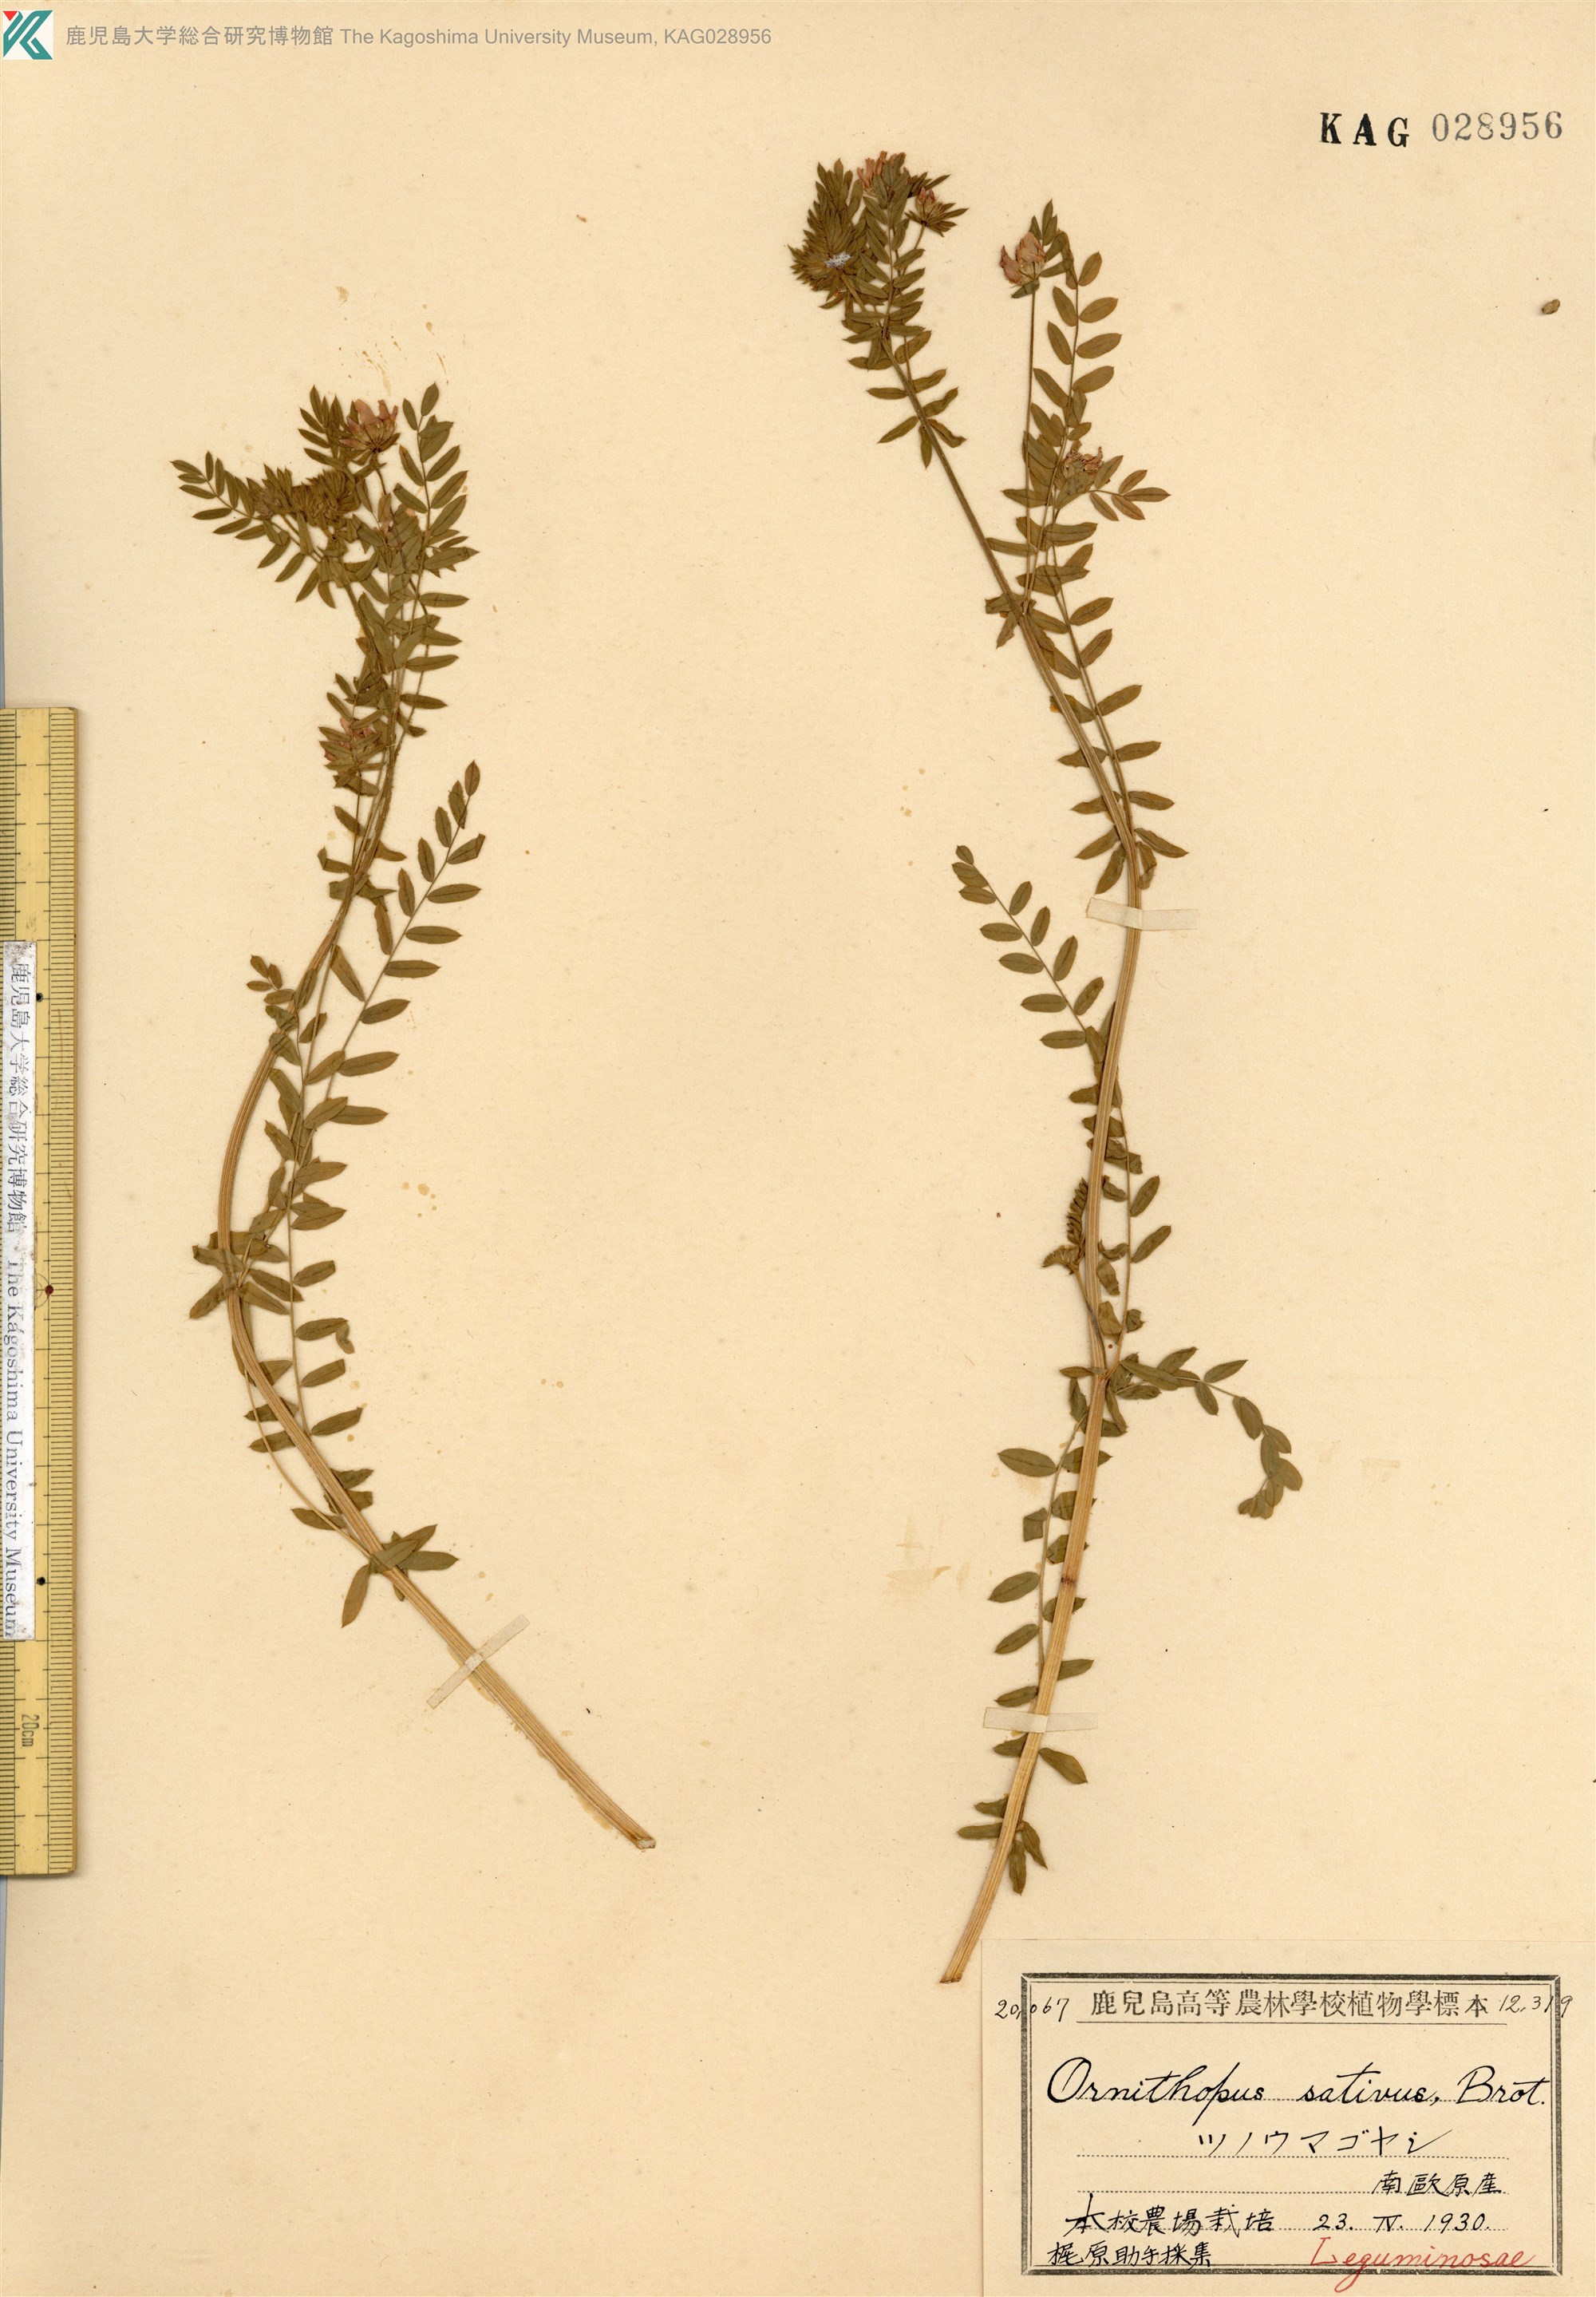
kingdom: Plantae
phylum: Tracheophyta
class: Magnoliopsida
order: Fabales
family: Fabaceae
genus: Ornithopus
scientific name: Ornithopus sativus
